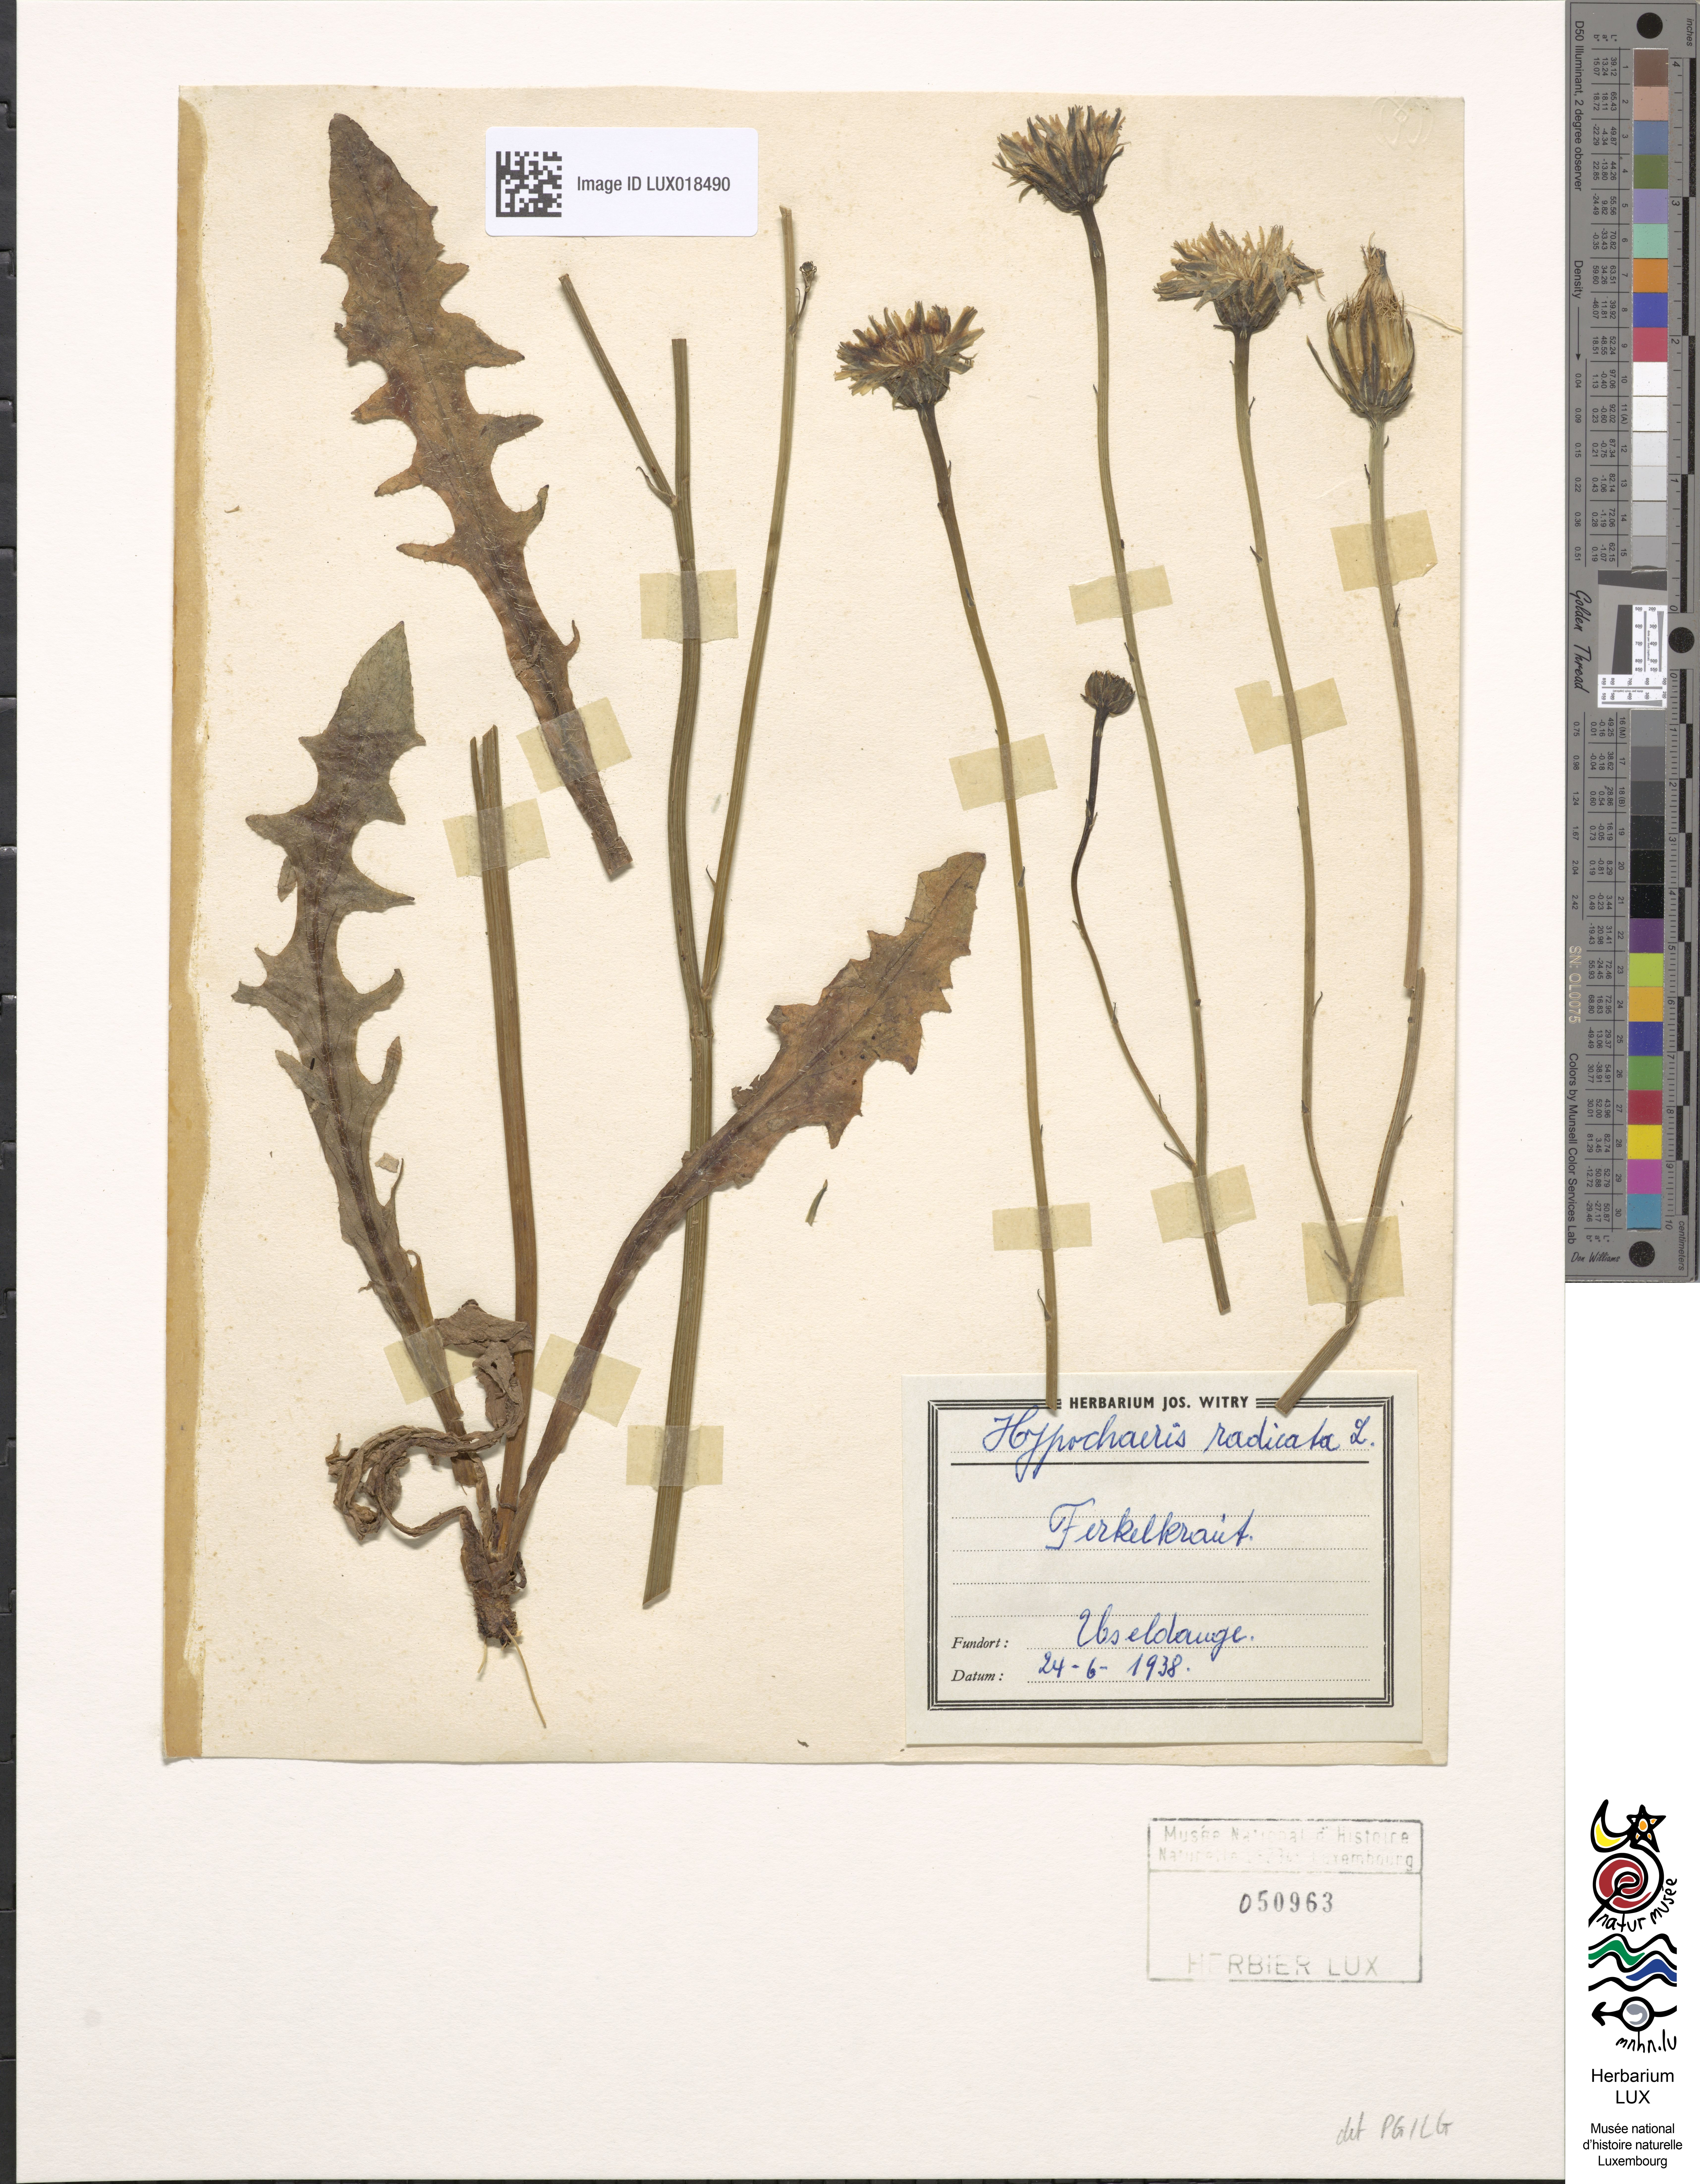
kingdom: Plantae
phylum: Tracheophyta
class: Magnoliopsida
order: Asterales
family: Asteraceae
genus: Hypochoeris
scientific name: Hypochoeris radicata
